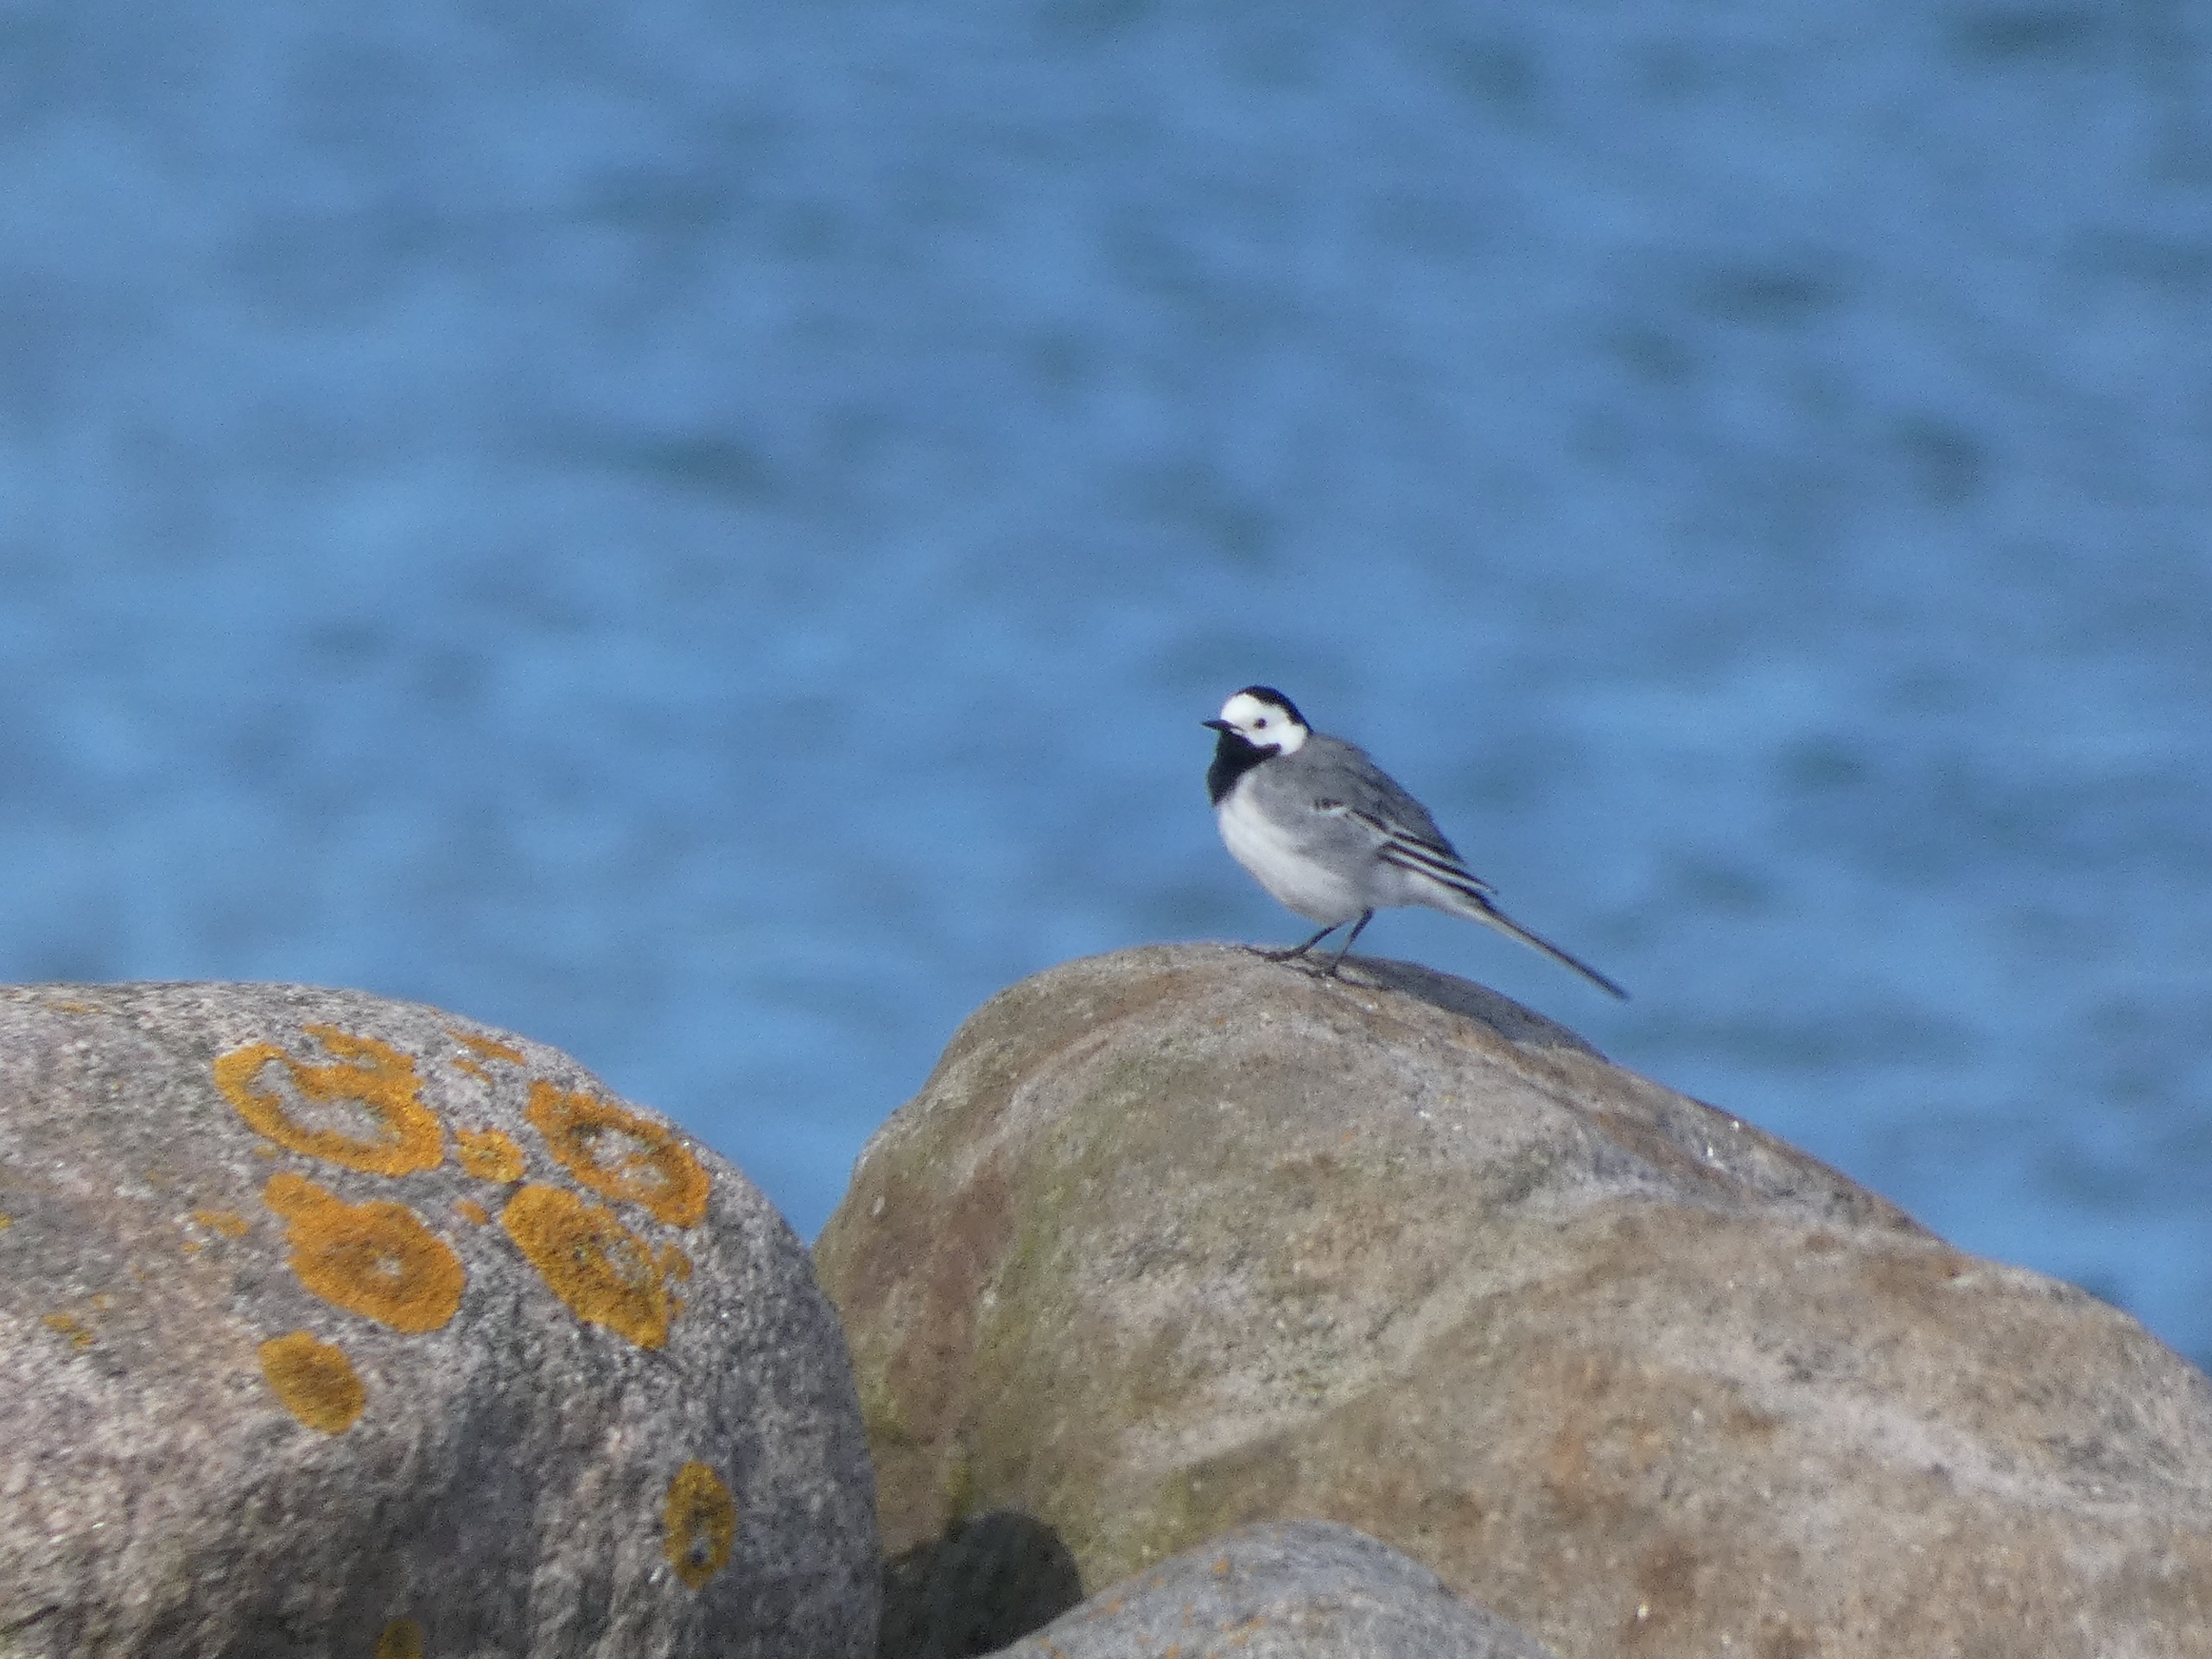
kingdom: Animalia
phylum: Chordata
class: Aves
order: Passeriformes
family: Motacillidae
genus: Motacilla
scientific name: Motacilla alba
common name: Hvid vipstjert
